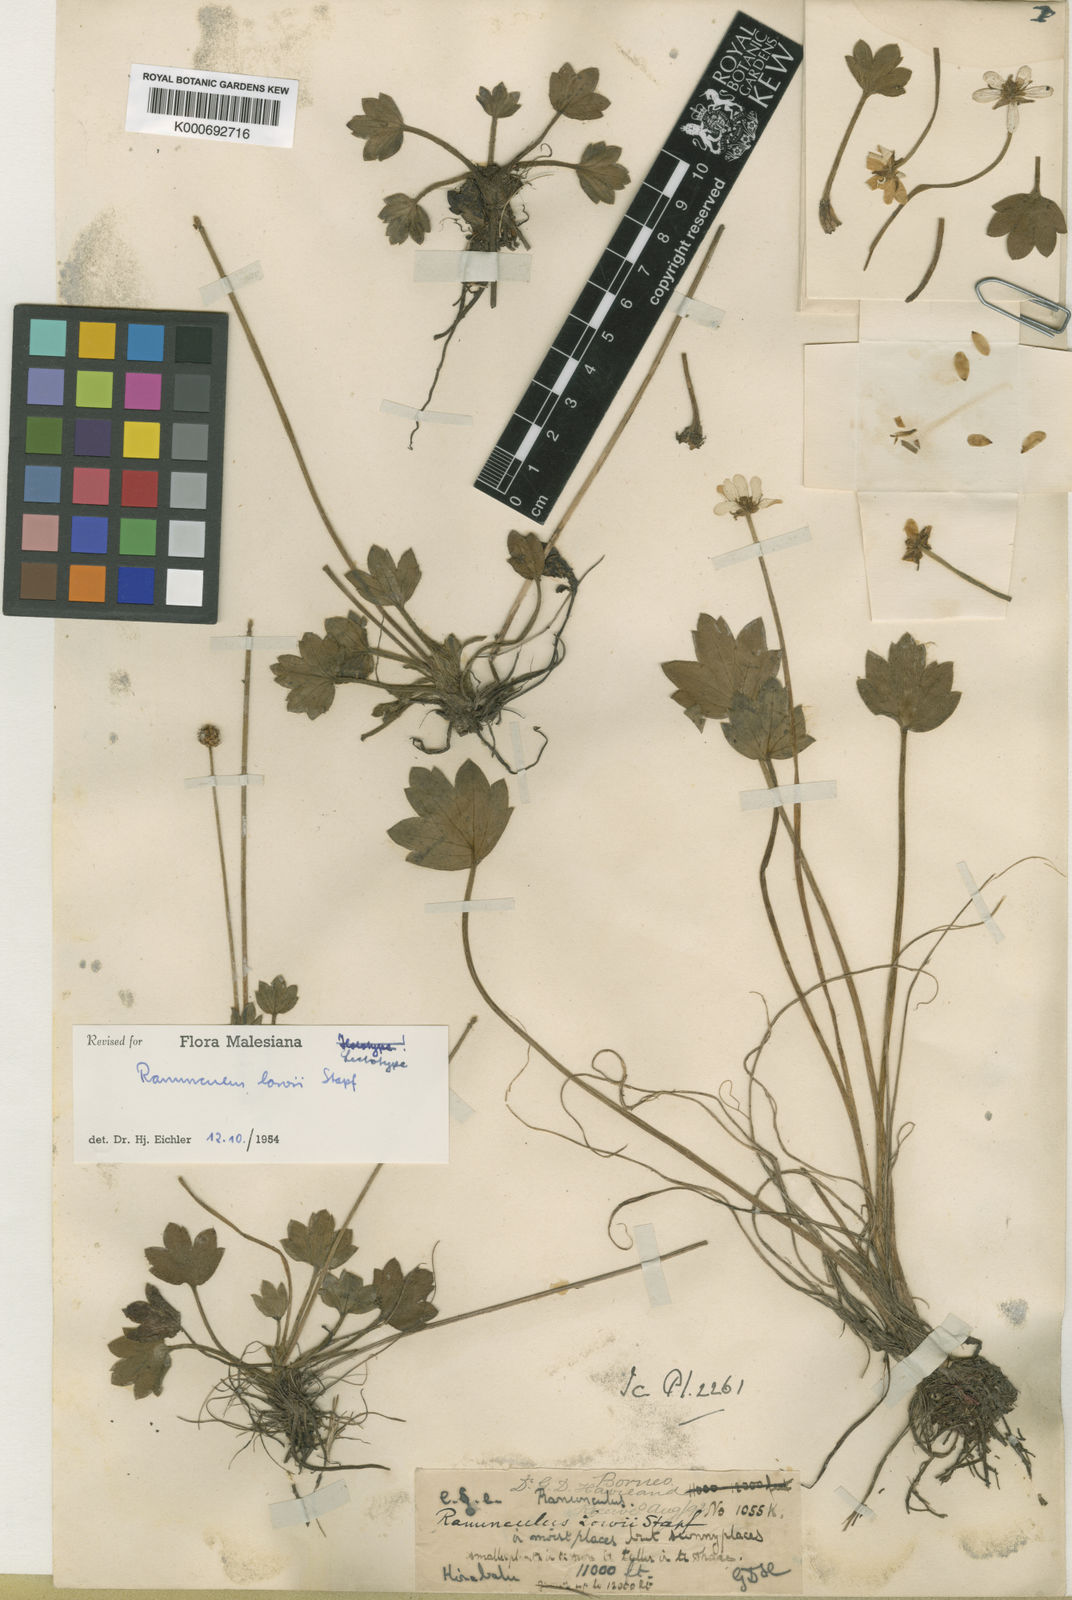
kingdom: Plantae
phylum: Tracheophyta
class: Magnoliopsida
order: Ranunculales
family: Ranunculaceae
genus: Ranunculus
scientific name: Ranunculus lowii
